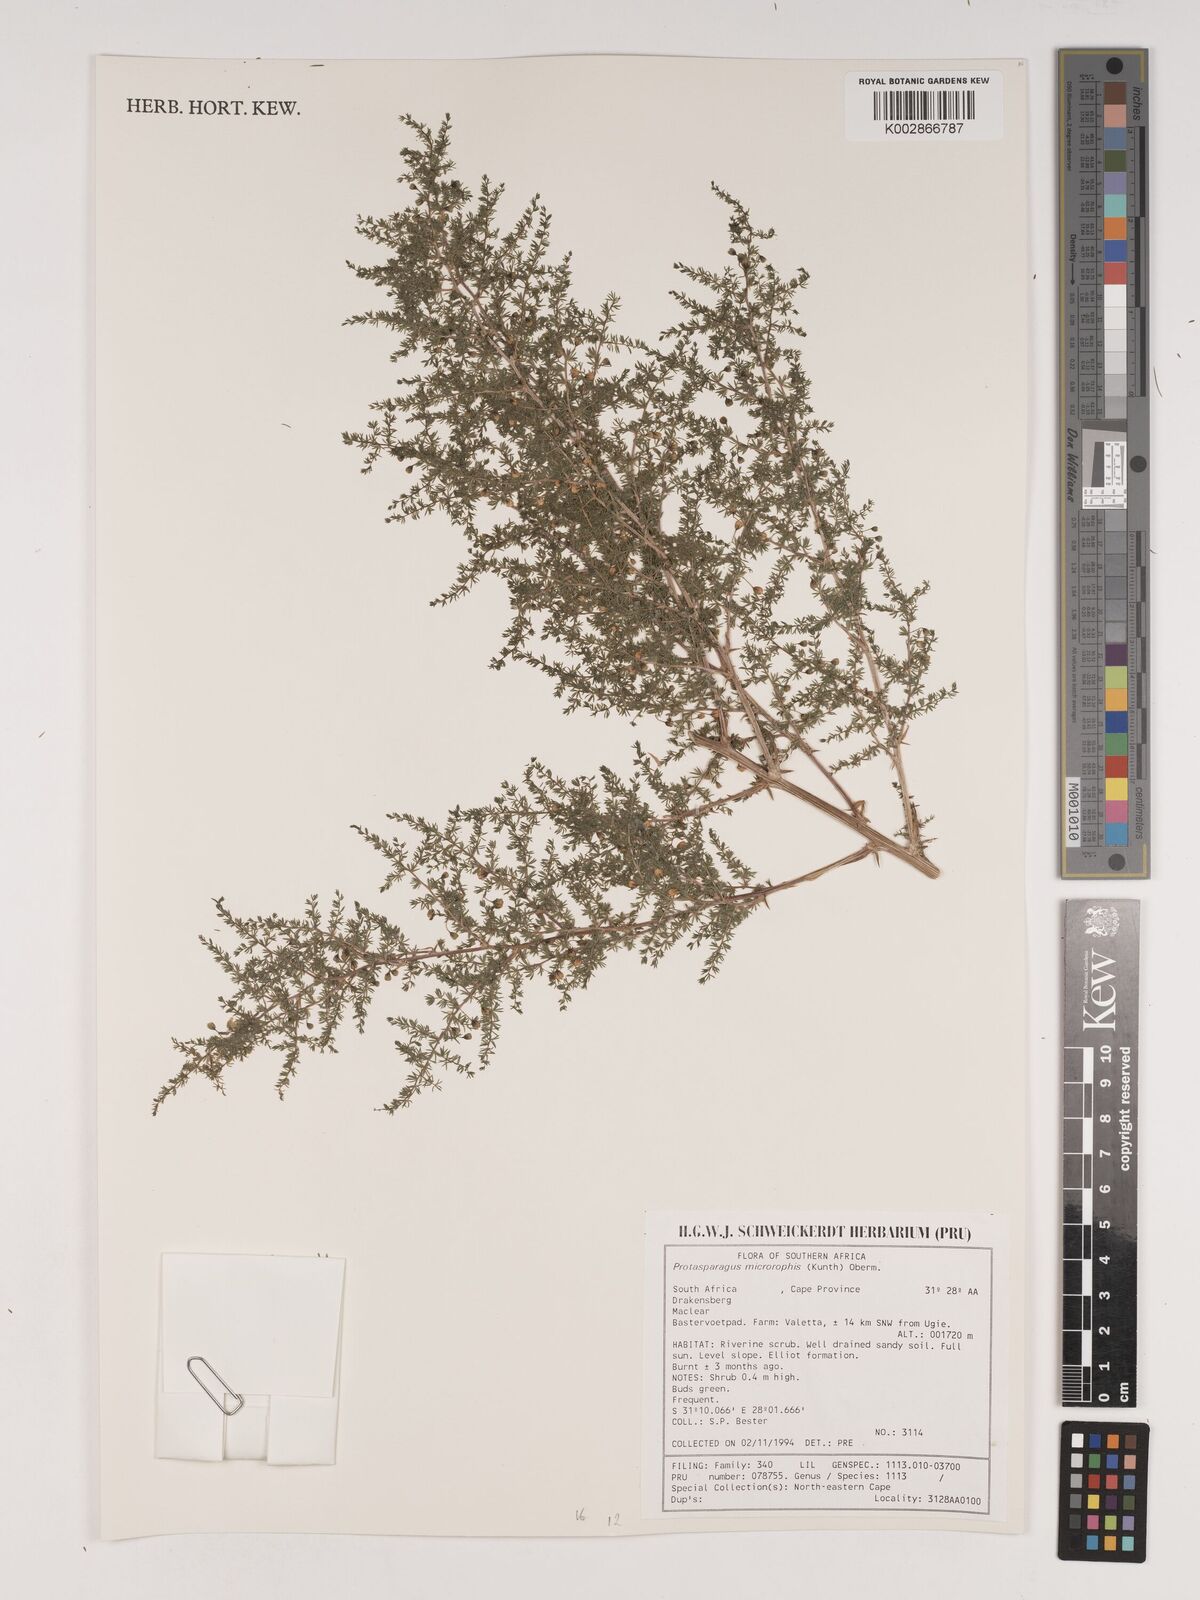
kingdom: Plantae
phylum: Tracheophyta
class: Liliopsida
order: Asparagales
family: Asparagaceae
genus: Asparagus
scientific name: Asparagus microraphis
